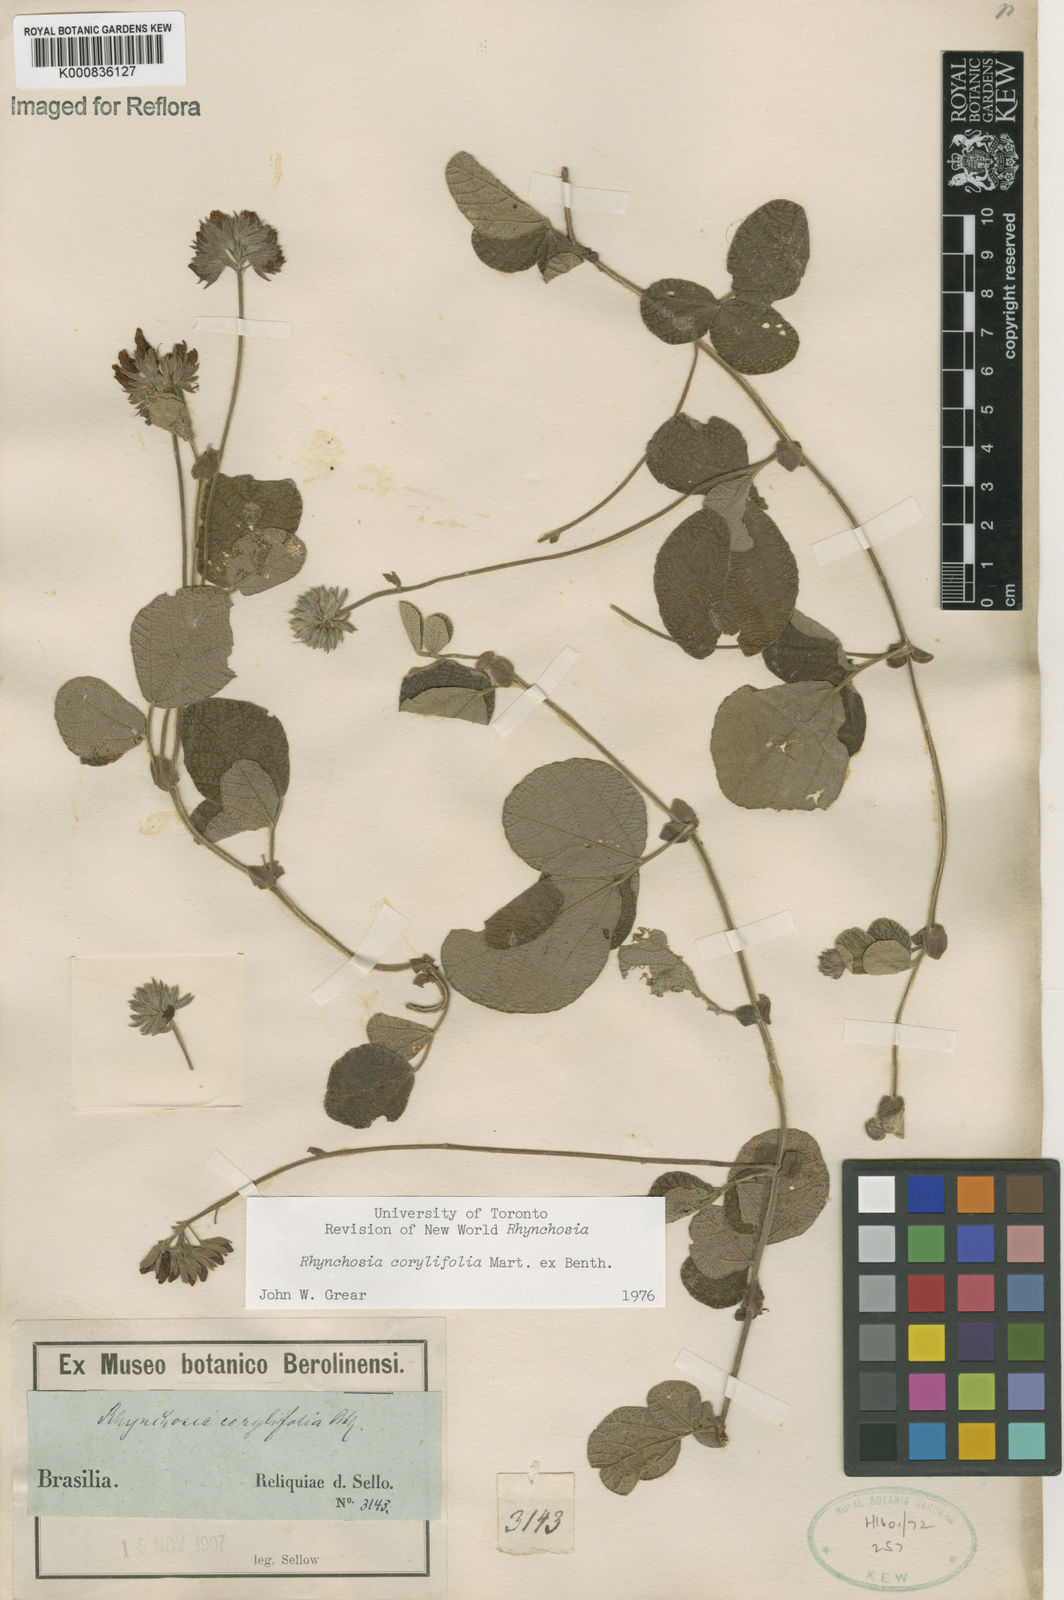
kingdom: Plantae
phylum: Tracheophyta
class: Magnoliopsida
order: Fabales
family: Fabaceae
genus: Rhynchosia
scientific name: Rhynchosia corylifolia
